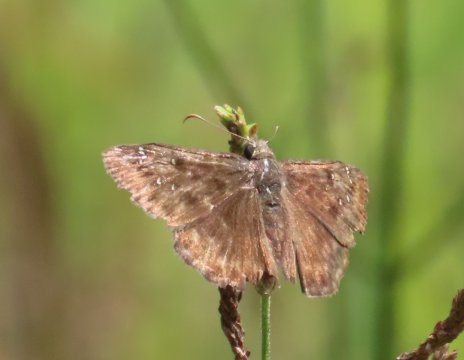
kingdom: Animalia
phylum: Arthropoda
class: Insecta
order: Lepidoptera
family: Hesperiidae
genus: Gesta
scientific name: Gesta
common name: Horace's Duskywing
